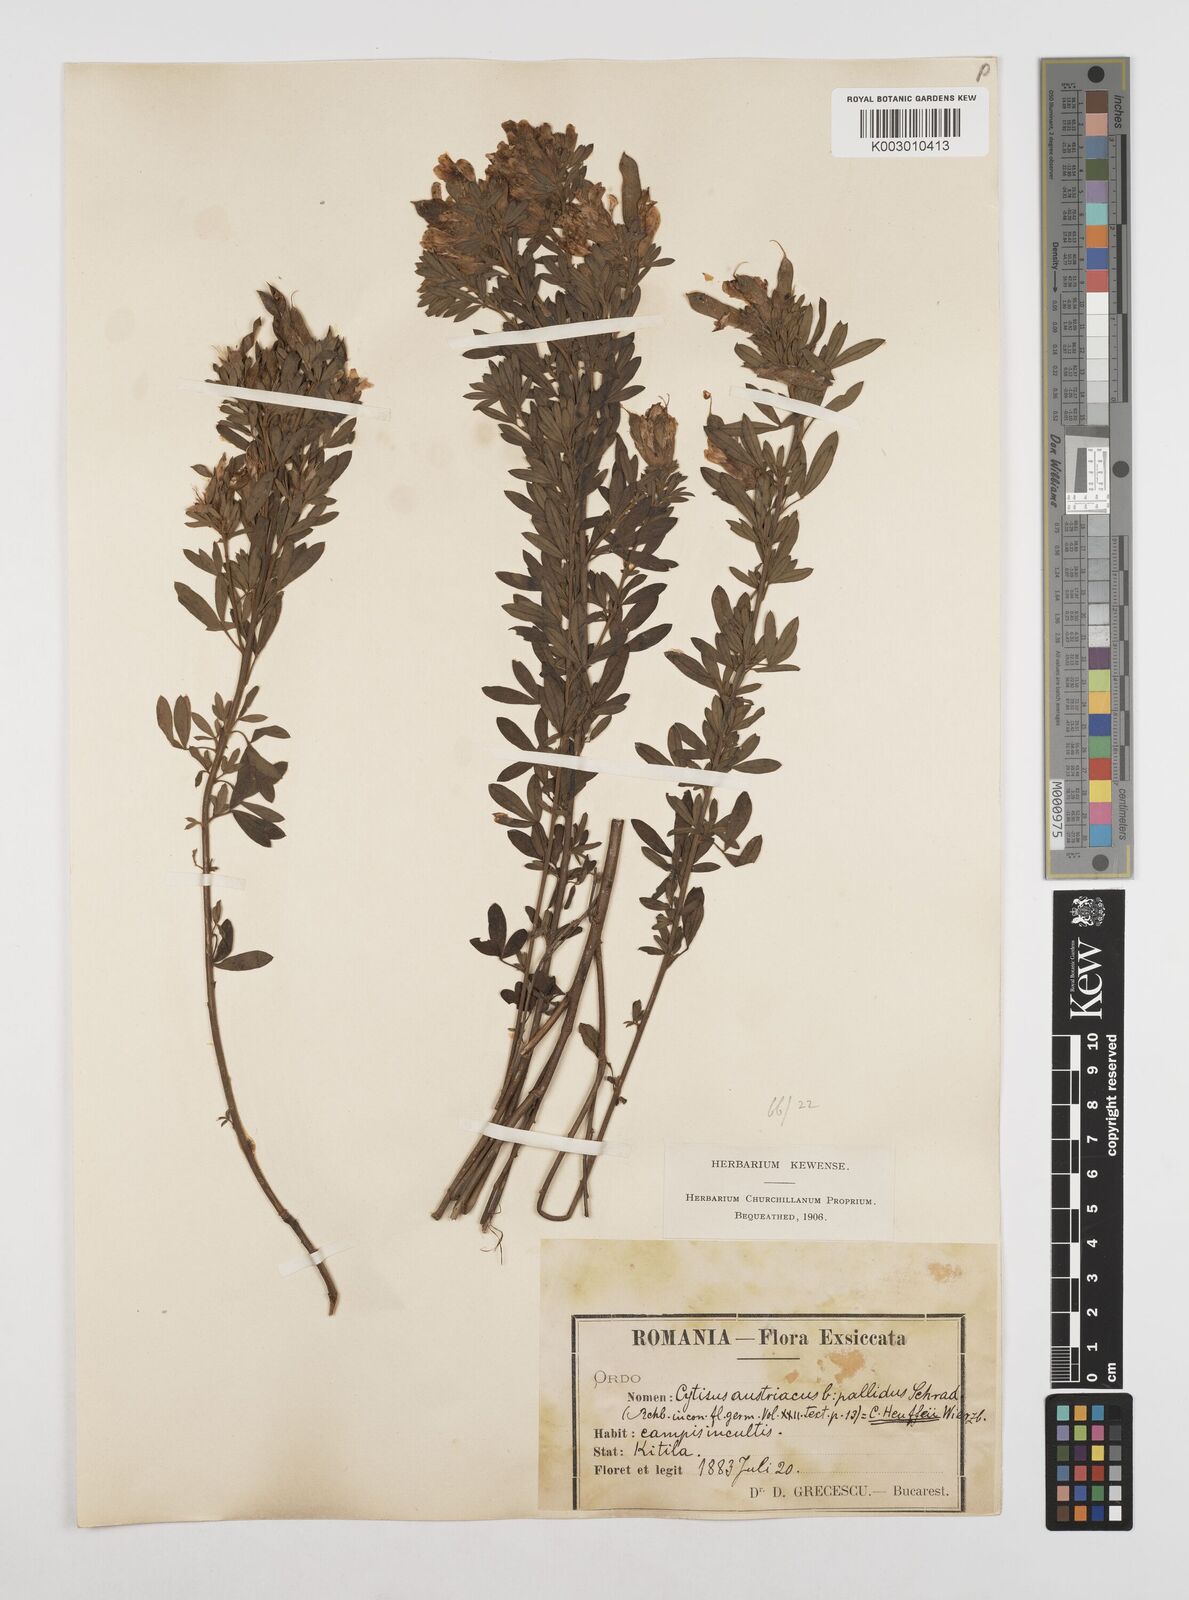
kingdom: Plantae
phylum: Tracheophyta
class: Magnoliopsida
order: Fabales
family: Fabaceae
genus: Chamaecytisus
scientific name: Chamaecytisus rochelii
